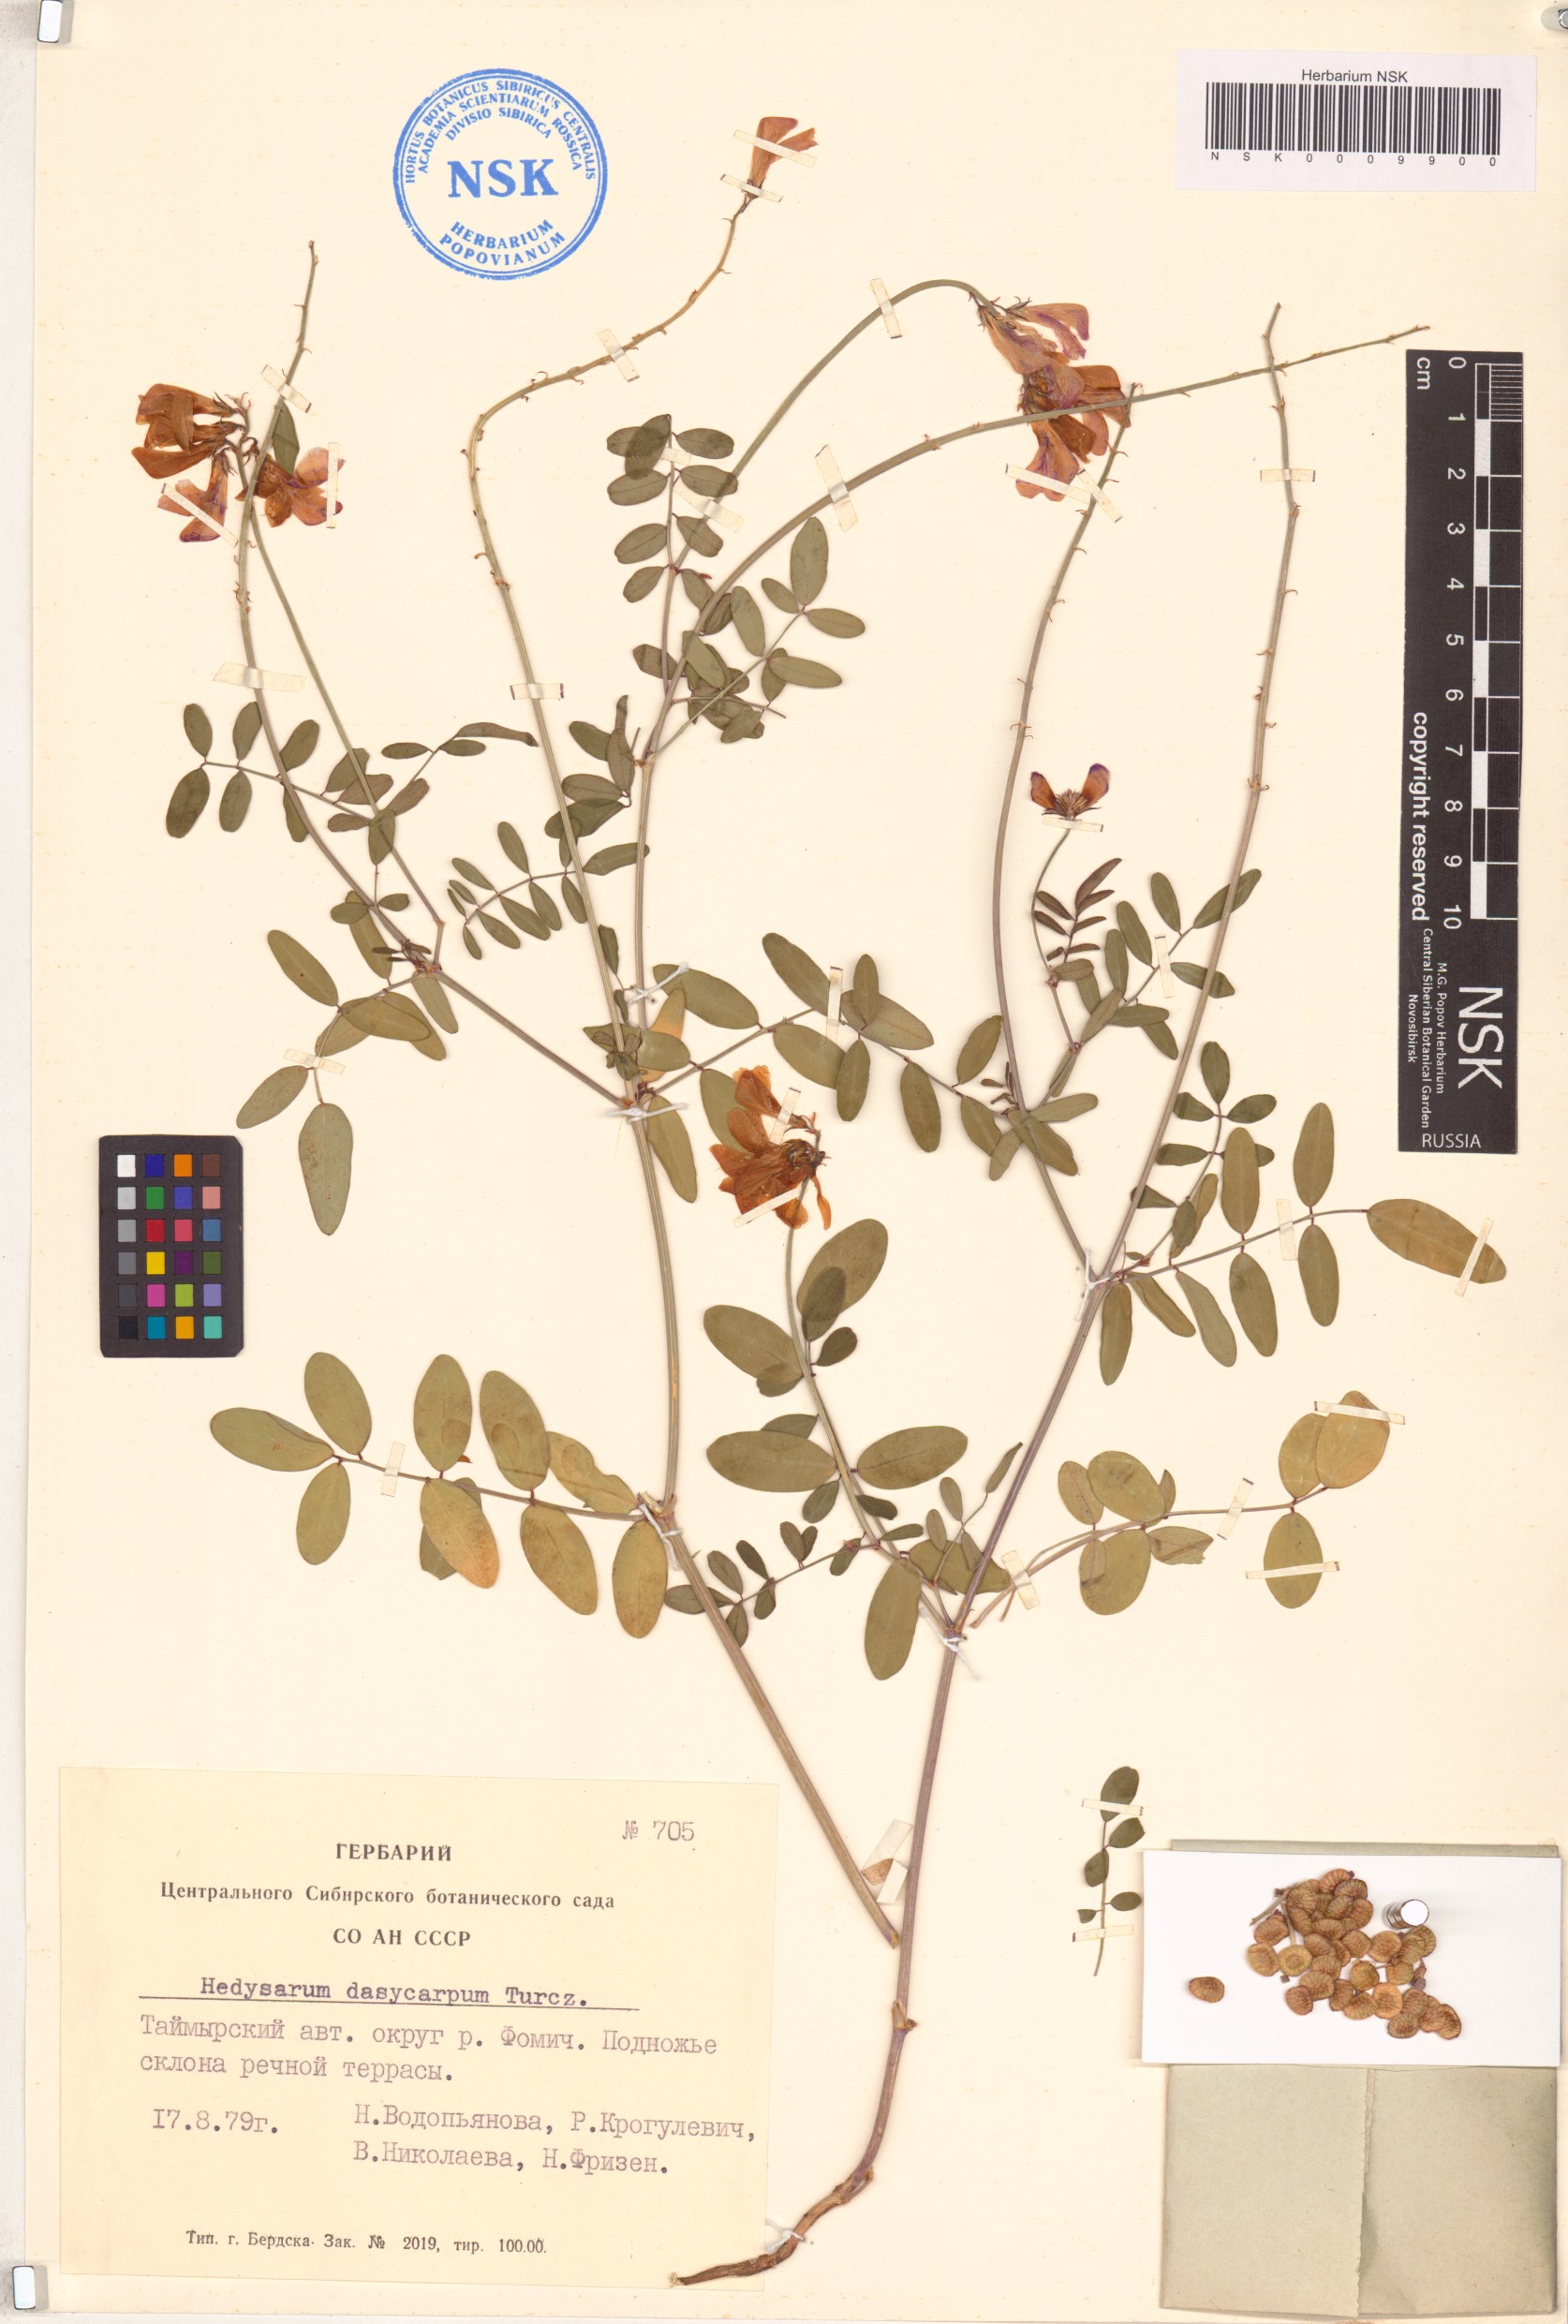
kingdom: Plantae
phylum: Tracheophyta
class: Magnoliopsida
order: Fabales
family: Fabaceae
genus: Hedysarum
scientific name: Hedysarum dasycarpum
